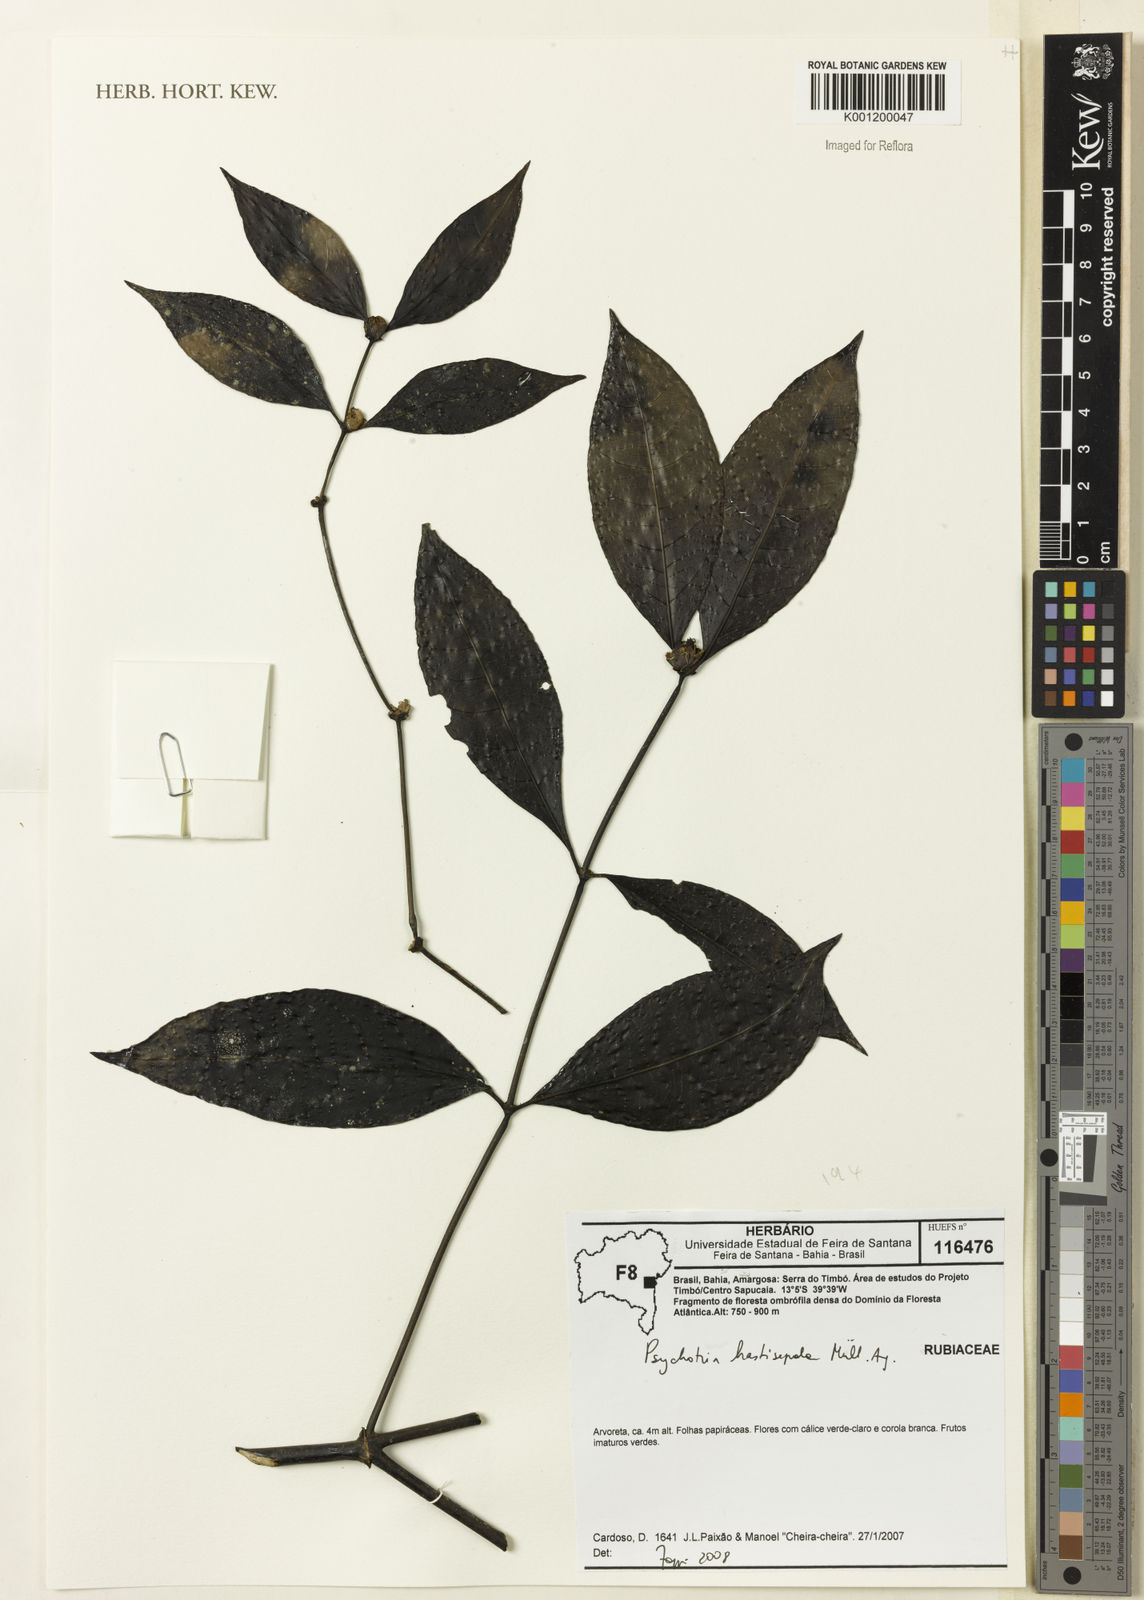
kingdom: Plantae
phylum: Tracheophyta
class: Magnoliopsida
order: Gentianales
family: Rubiaceae
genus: Psychotria
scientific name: Psychotria
